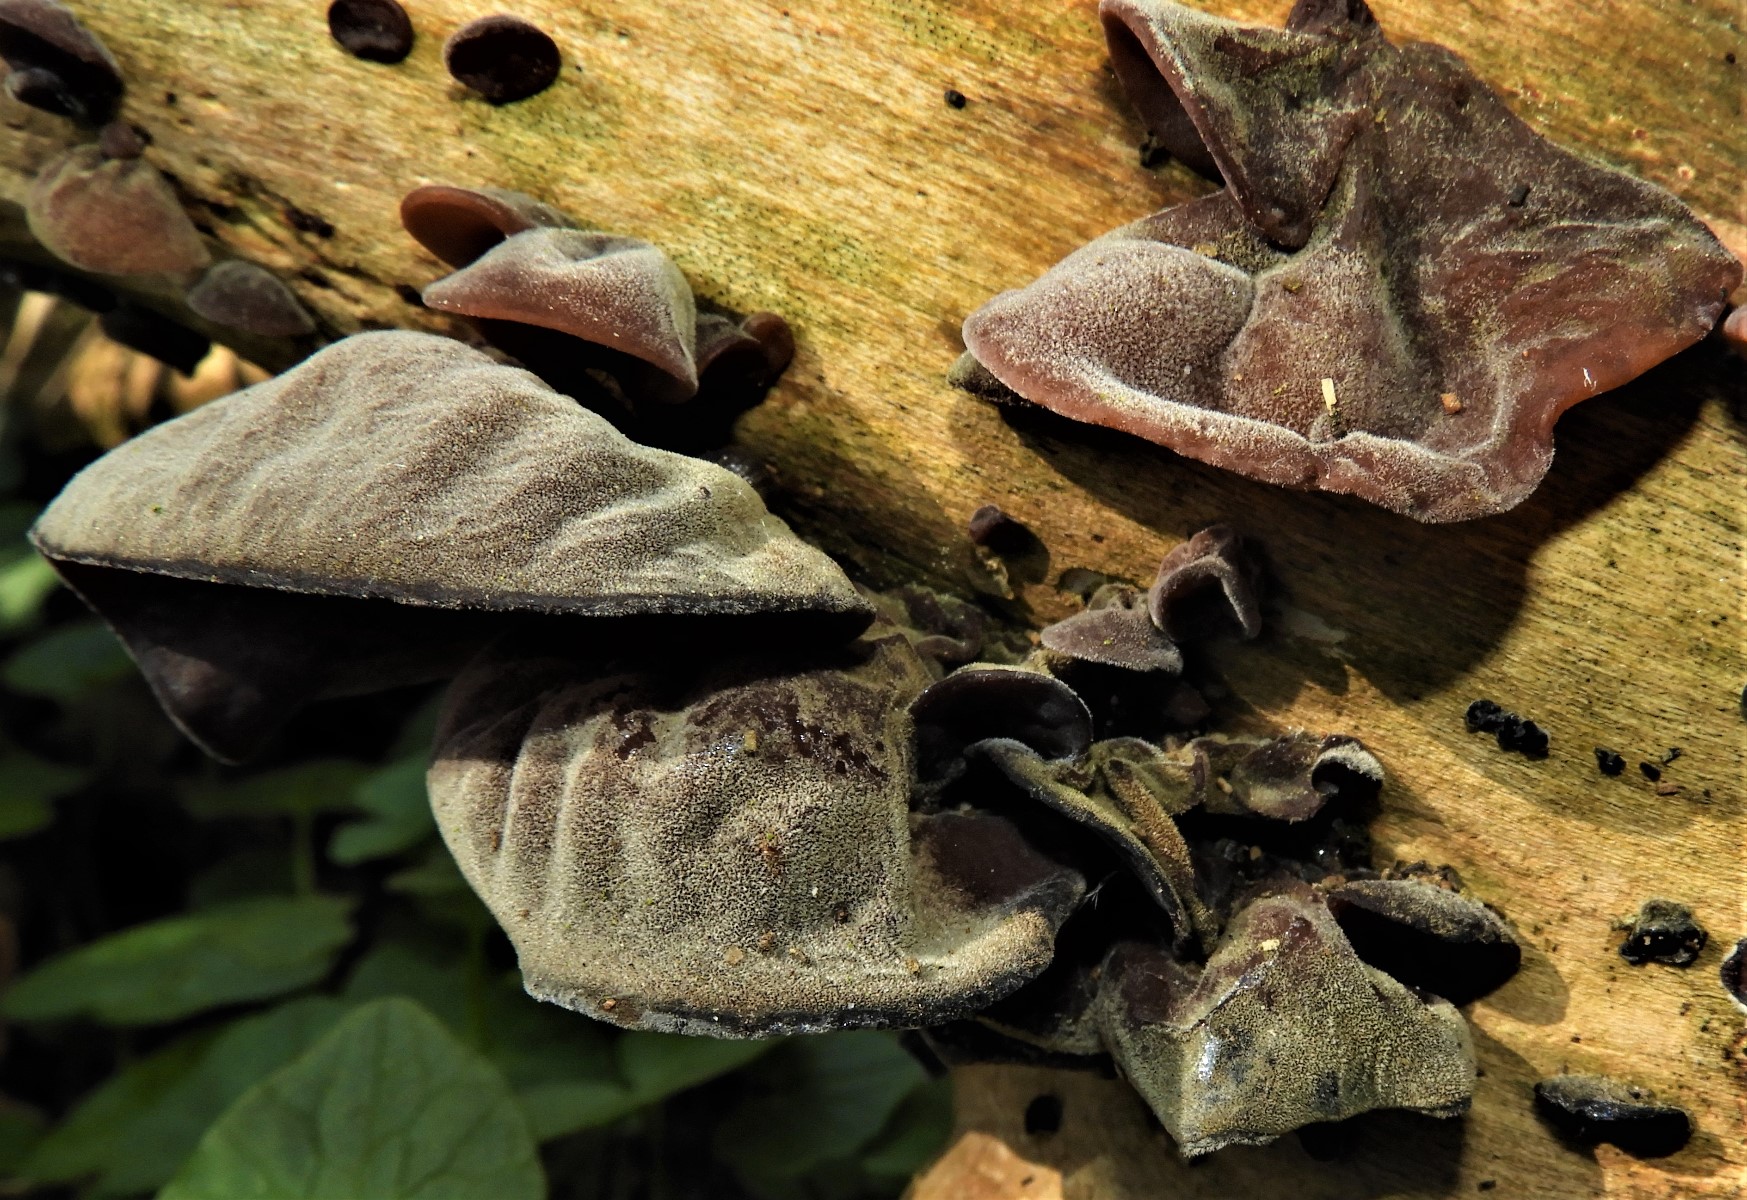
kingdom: Fungi
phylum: Basidiomycota
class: Agaricomycetes
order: Auriculariales
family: Auriculariaceae
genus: Auricularia
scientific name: Auricularia auricula-judae
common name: almindelig judasøre
